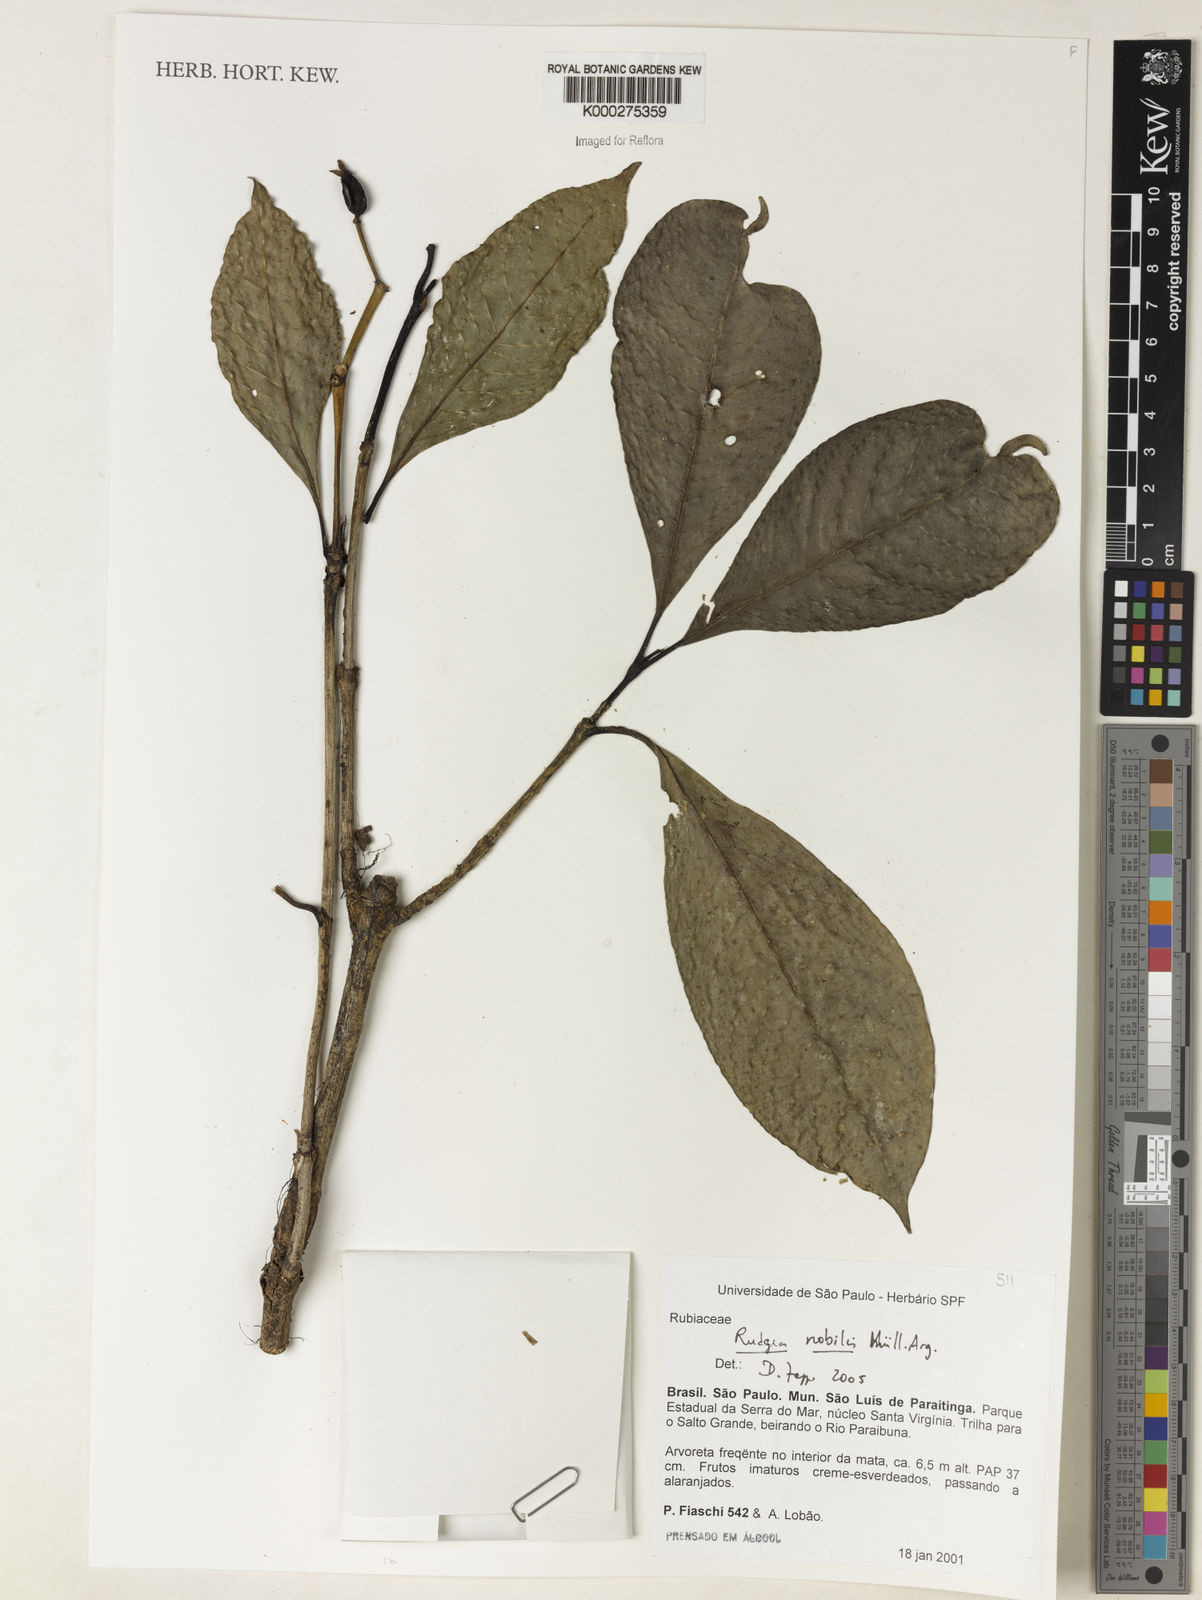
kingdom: Plantae
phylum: Tracheophyta
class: Magnoliopsida
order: Gentianales
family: Rubiaceae
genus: Psychotria
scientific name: Psychotria
